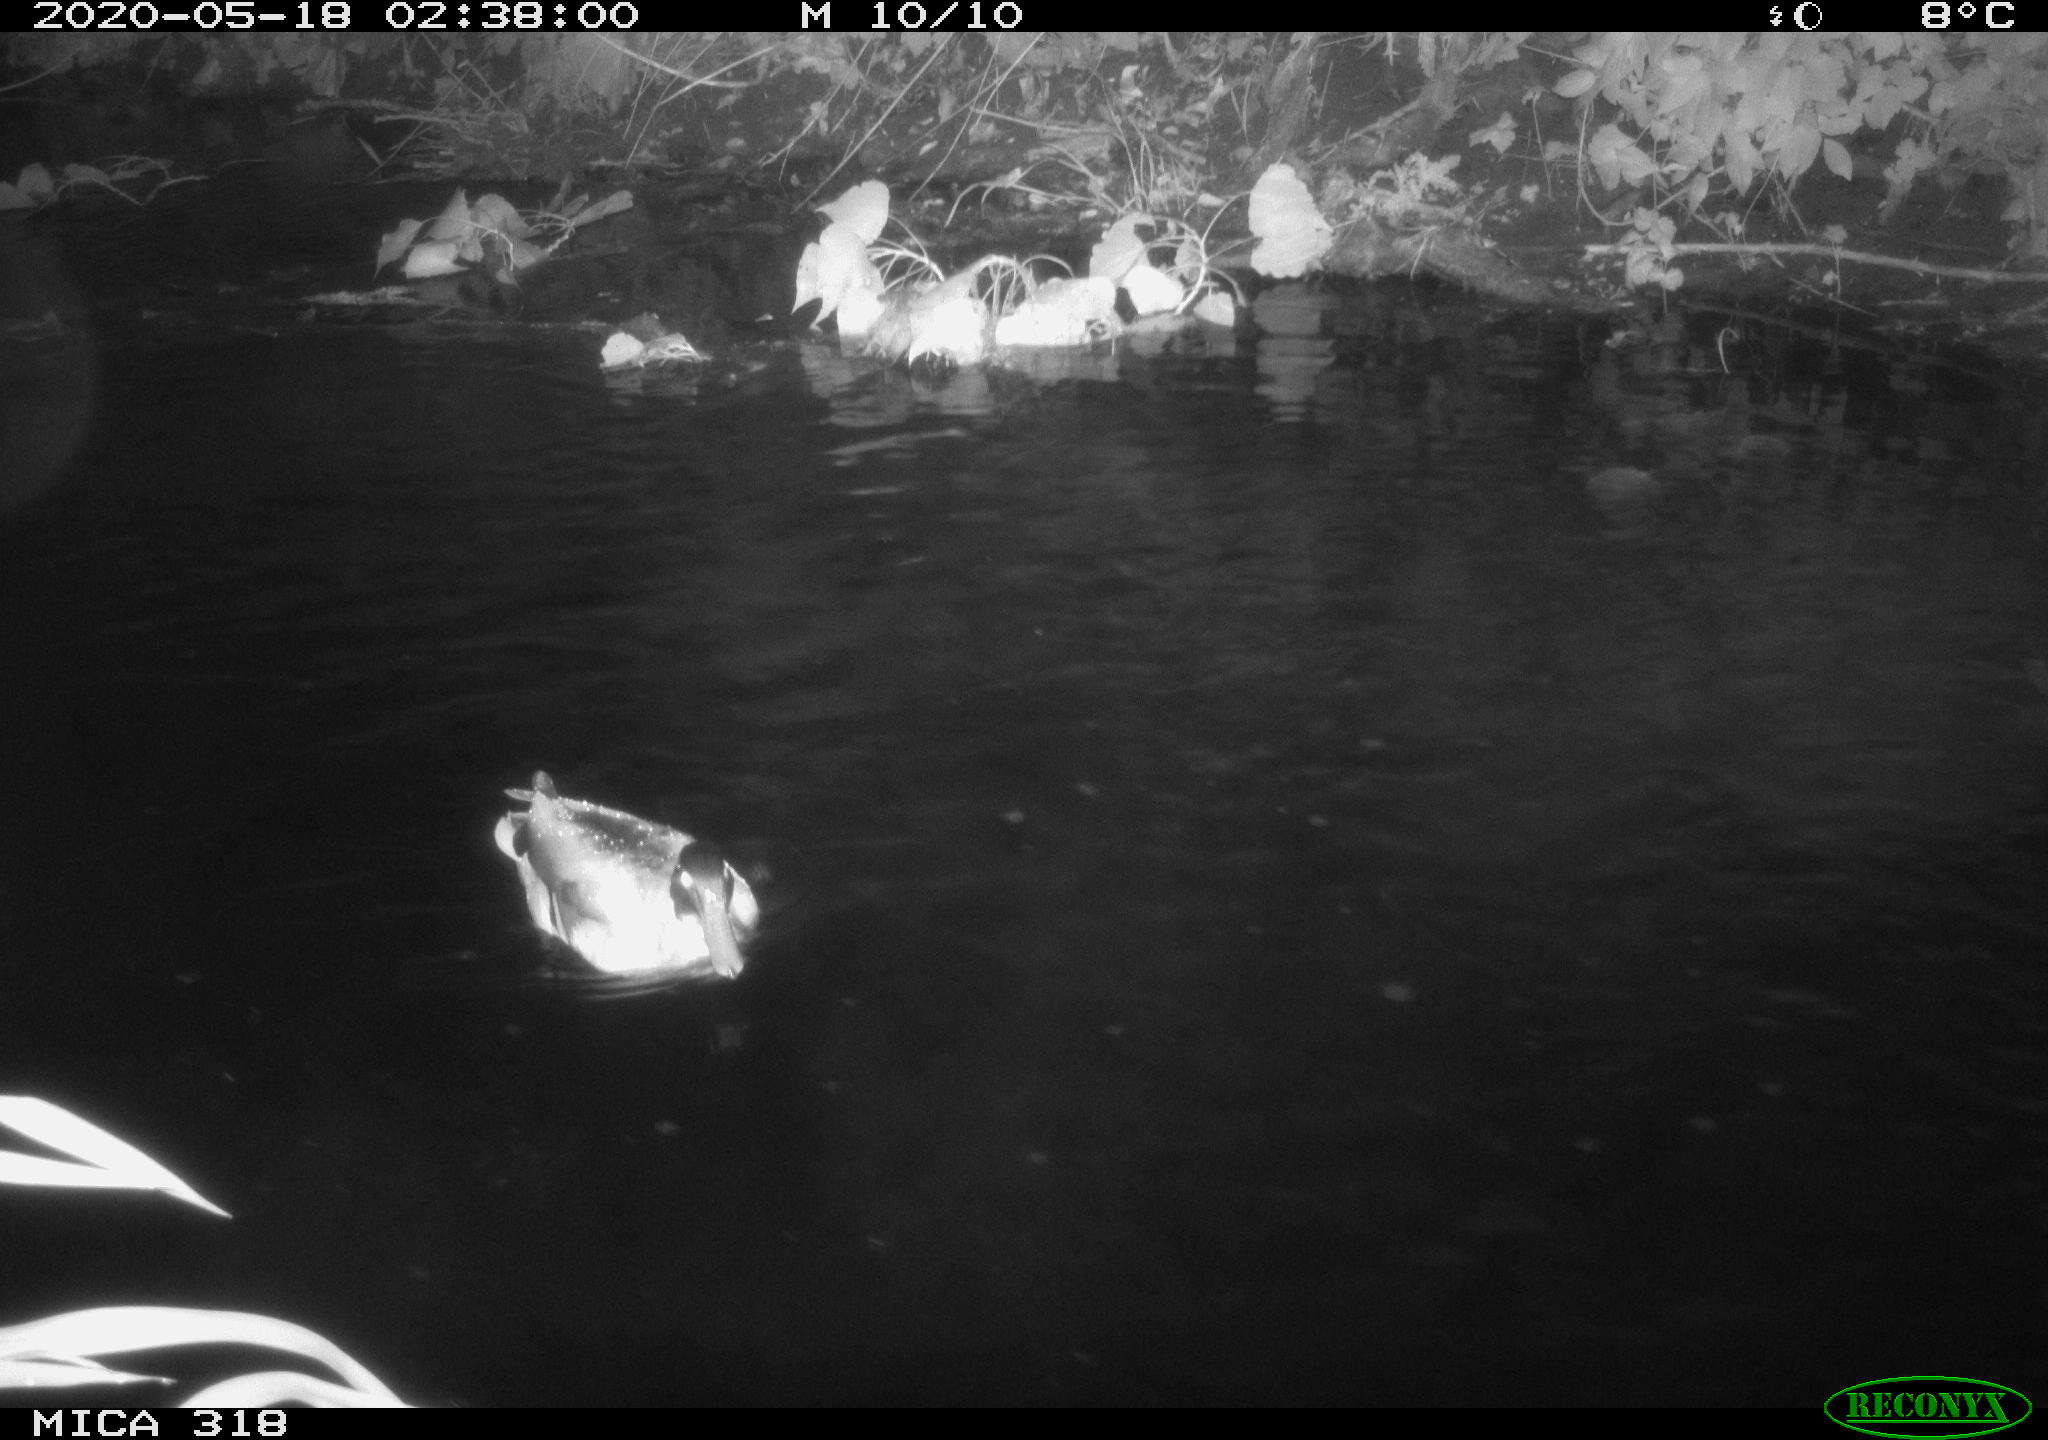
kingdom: Animalia
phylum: Chordata
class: Aves
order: Anseriformes
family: Anatidae
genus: Anas
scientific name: Anas platyrhynchos
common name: Mallard
